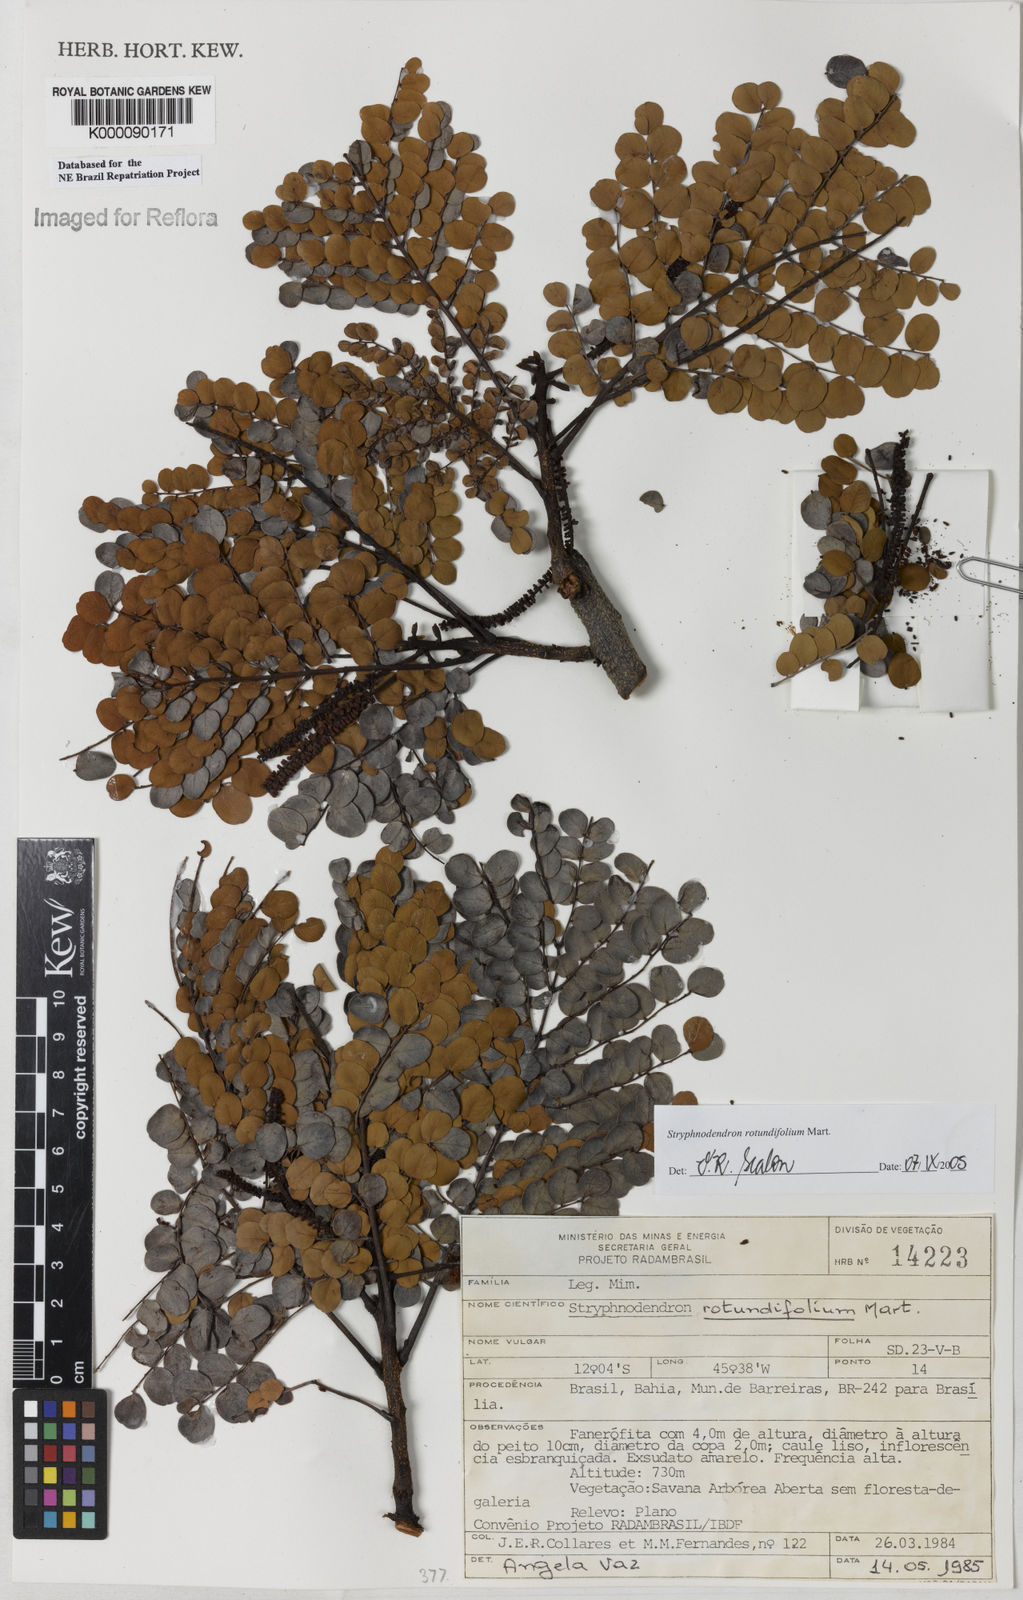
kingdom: Plantae
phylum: Tracheophyta
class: Magnoliopsida
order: Fabales
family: Fabaceae
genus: Stryphnodendron
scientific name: Stryphnodendron rotundifolium
